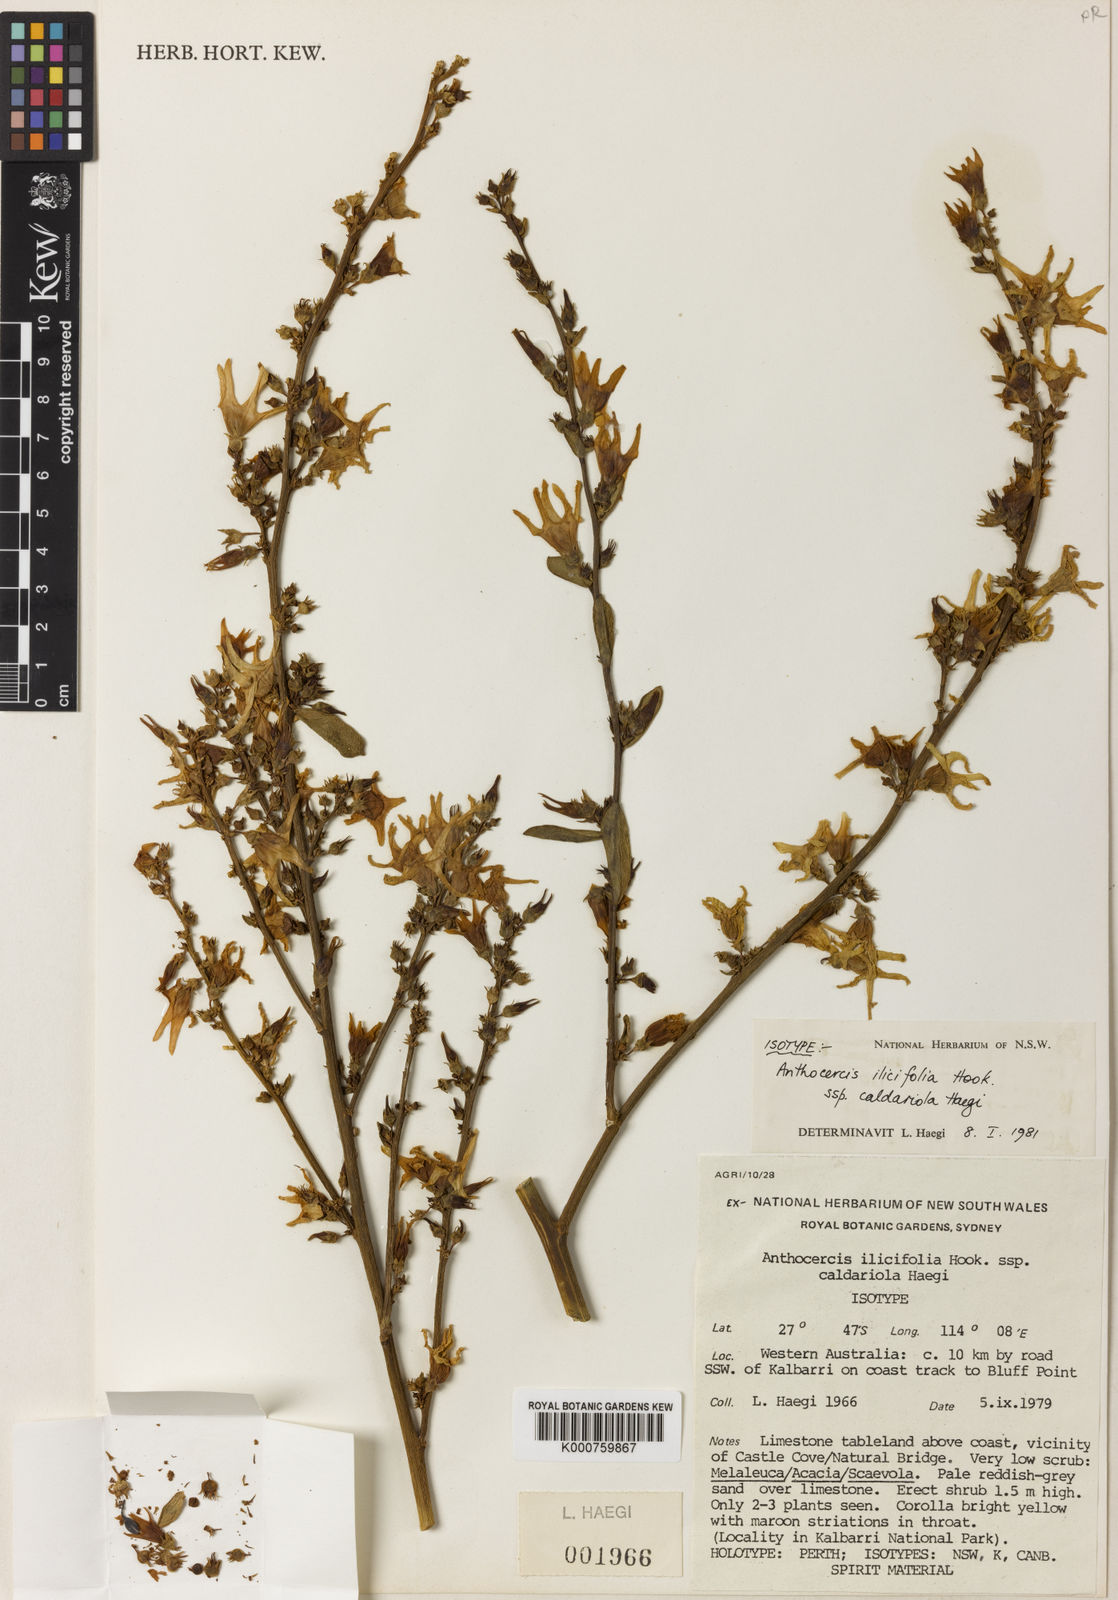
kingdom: Plantae
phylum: Tracheophyta
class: Magnoliopsida
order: Solanales
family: Solanaceae
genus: Anthocercis
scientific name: Anthocercis ilicifolia
